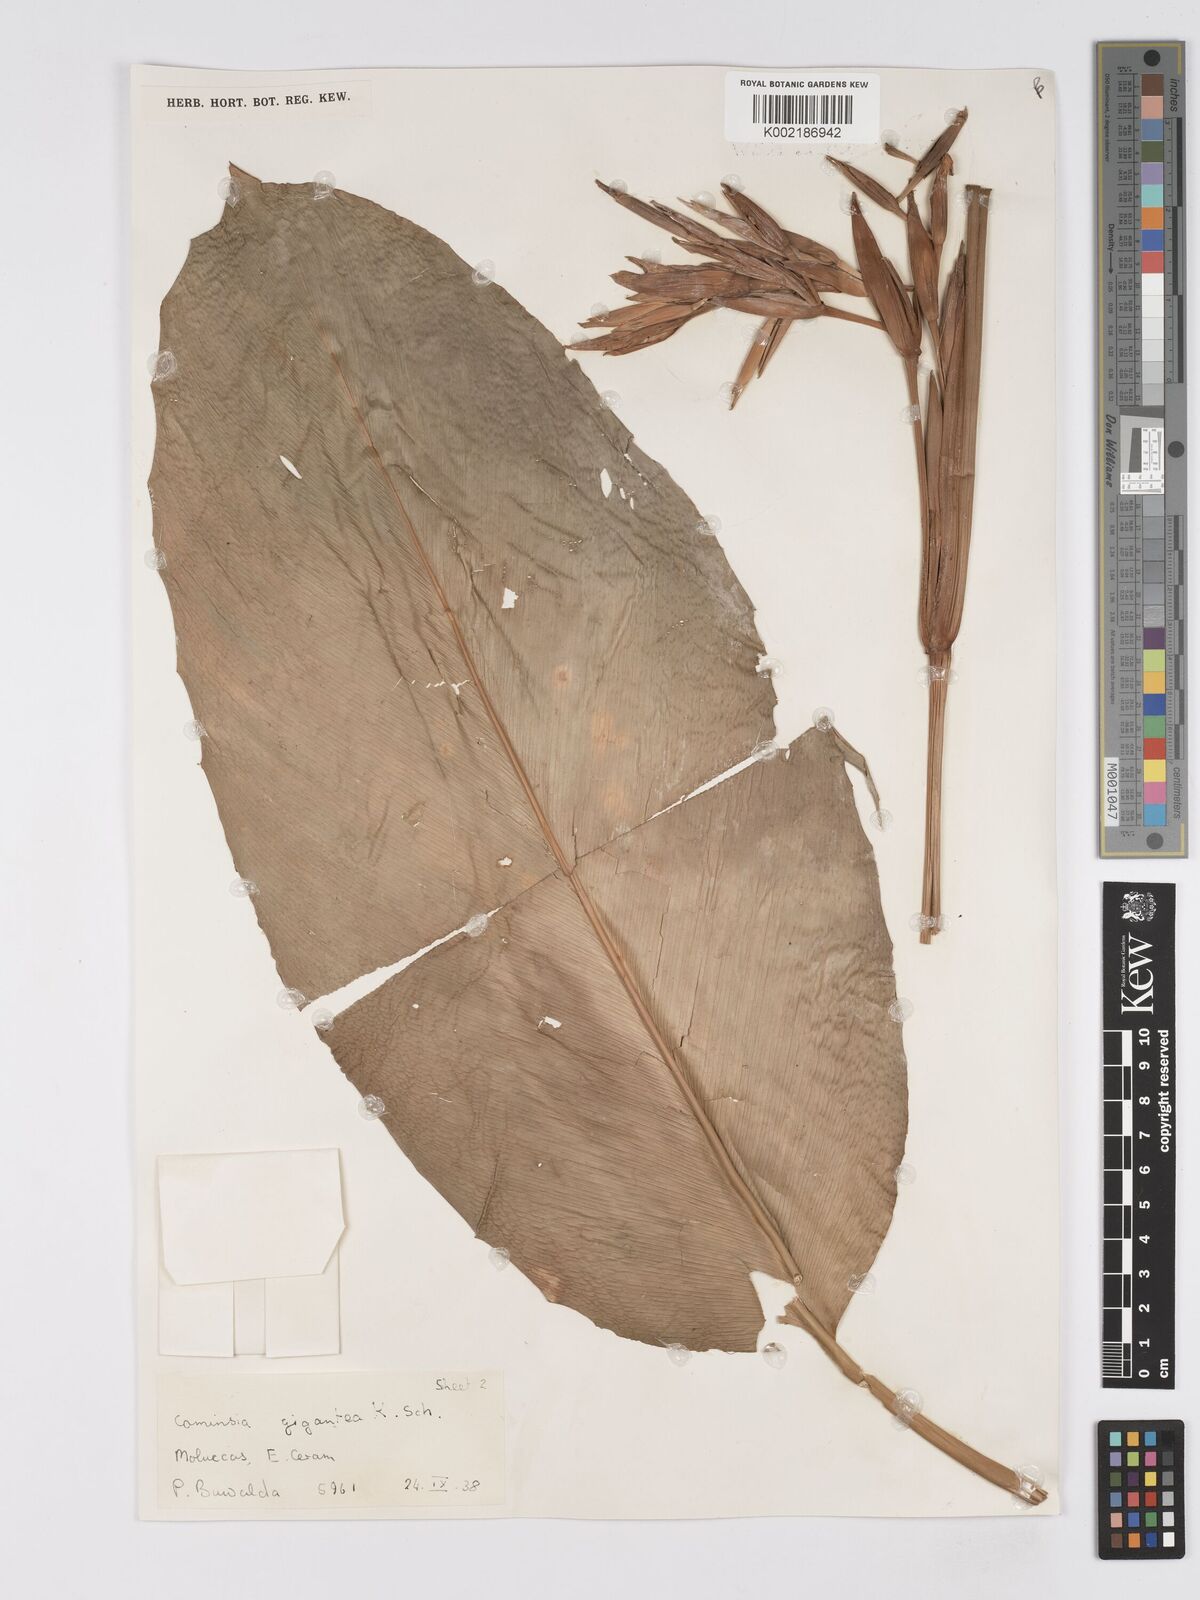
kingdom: Plantae
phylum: Tracheophyta
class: Liliopsida
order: Zingiberales
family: Marantaceae
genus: Phrynium
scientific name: Phrynium giganteum
